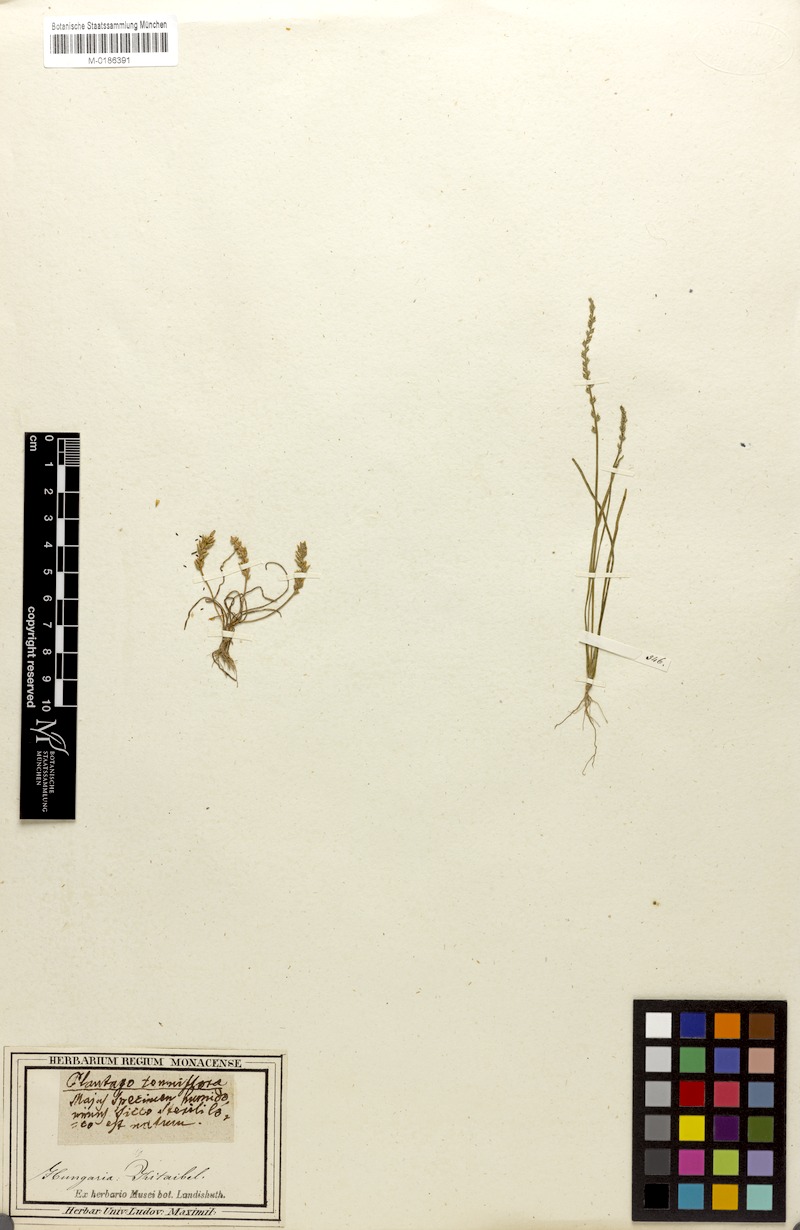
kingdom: Plantae
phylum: Tracheophyta
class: Magnoliopsida
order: Lamiales
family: Plantaginaceae
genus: Plantago
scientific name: Plantago tenuiflora
